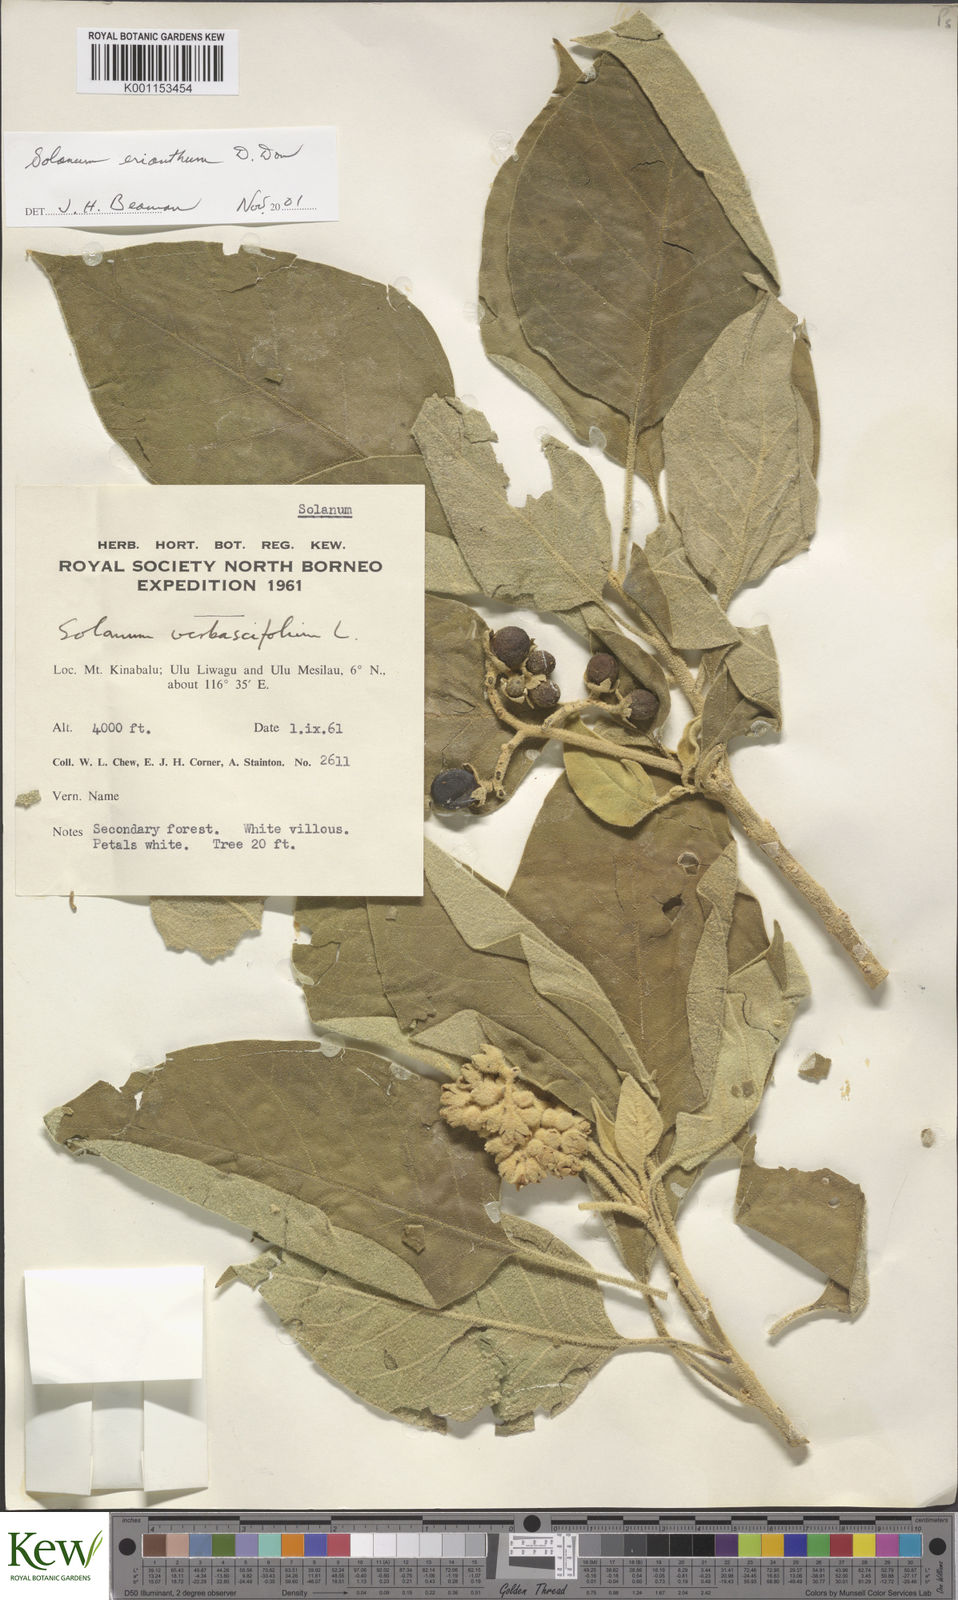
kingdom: Plantae
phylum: Tracheophyta
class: Magnoliopsida
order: Solanales
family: Solanaceae
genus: Solanum
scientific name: Solanum erianthum
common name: Tobacco-tree
